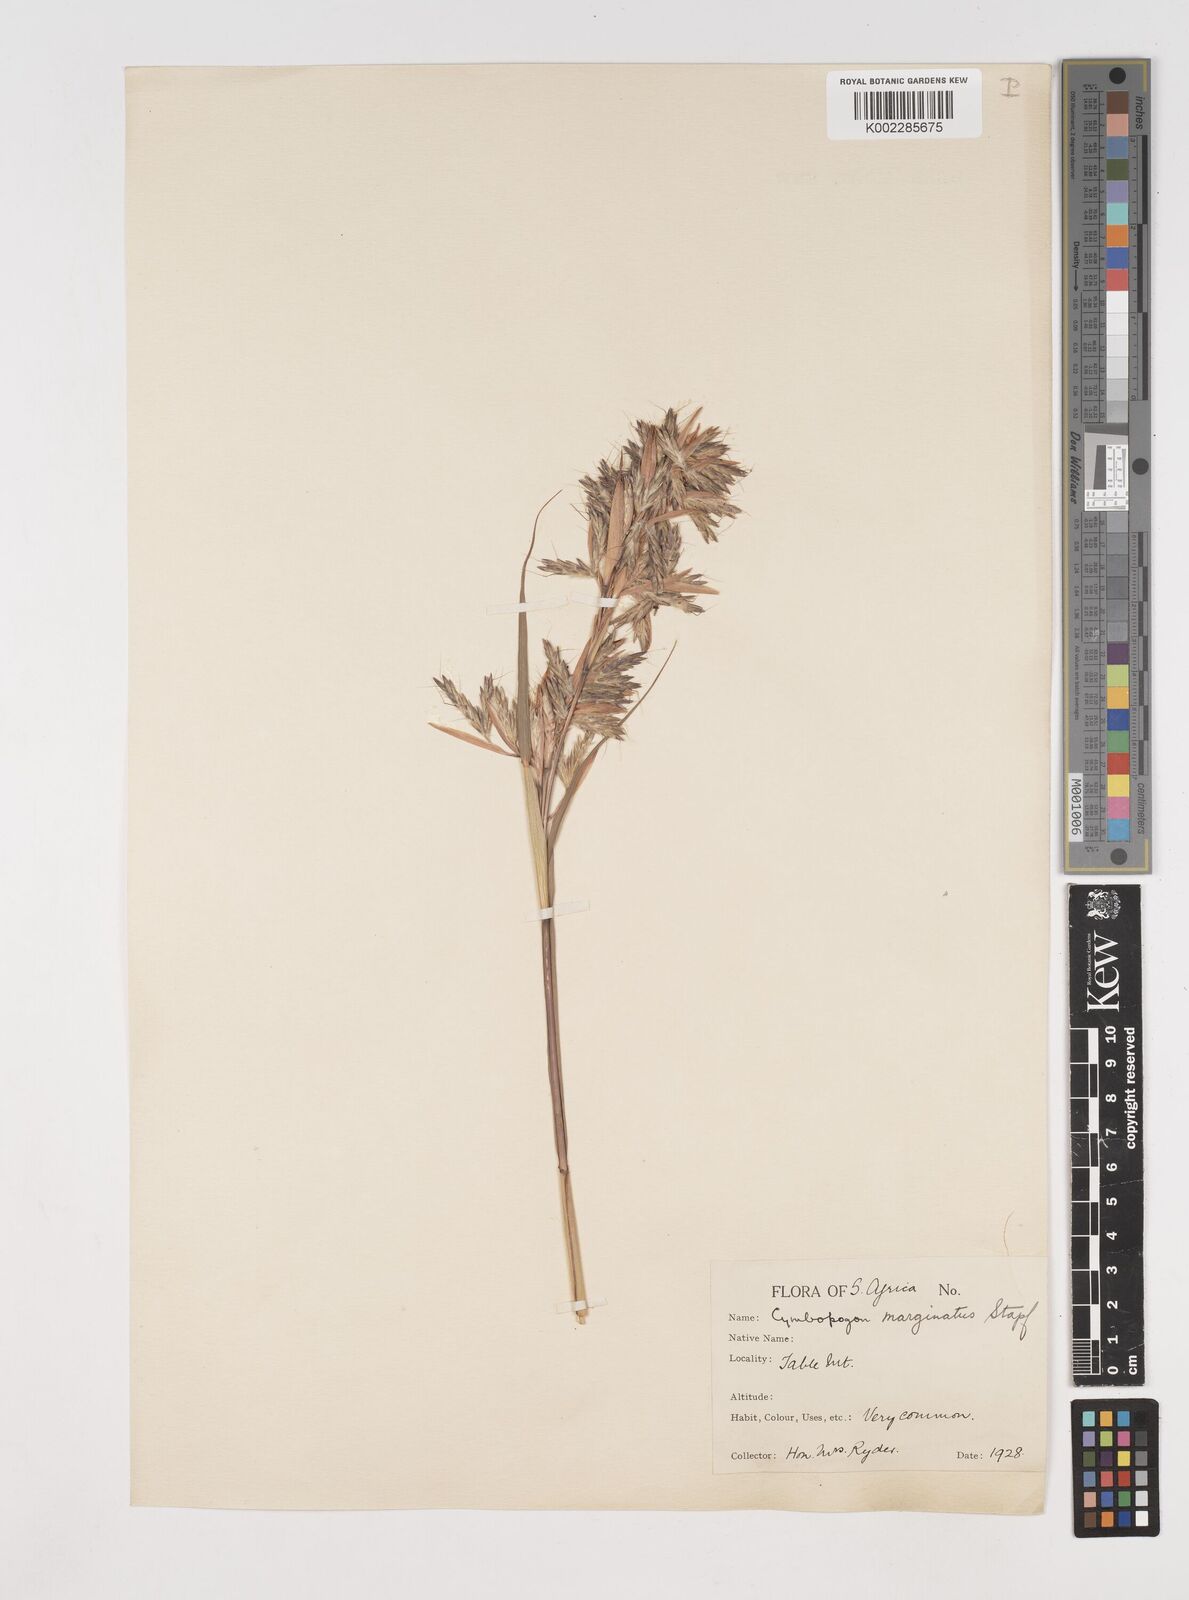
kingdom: Plantae
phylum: Tracheophyta
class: Liliopsida
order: Poales
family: Poaceae
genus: Cymbopogon
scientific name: Cymbopogon marginatus
